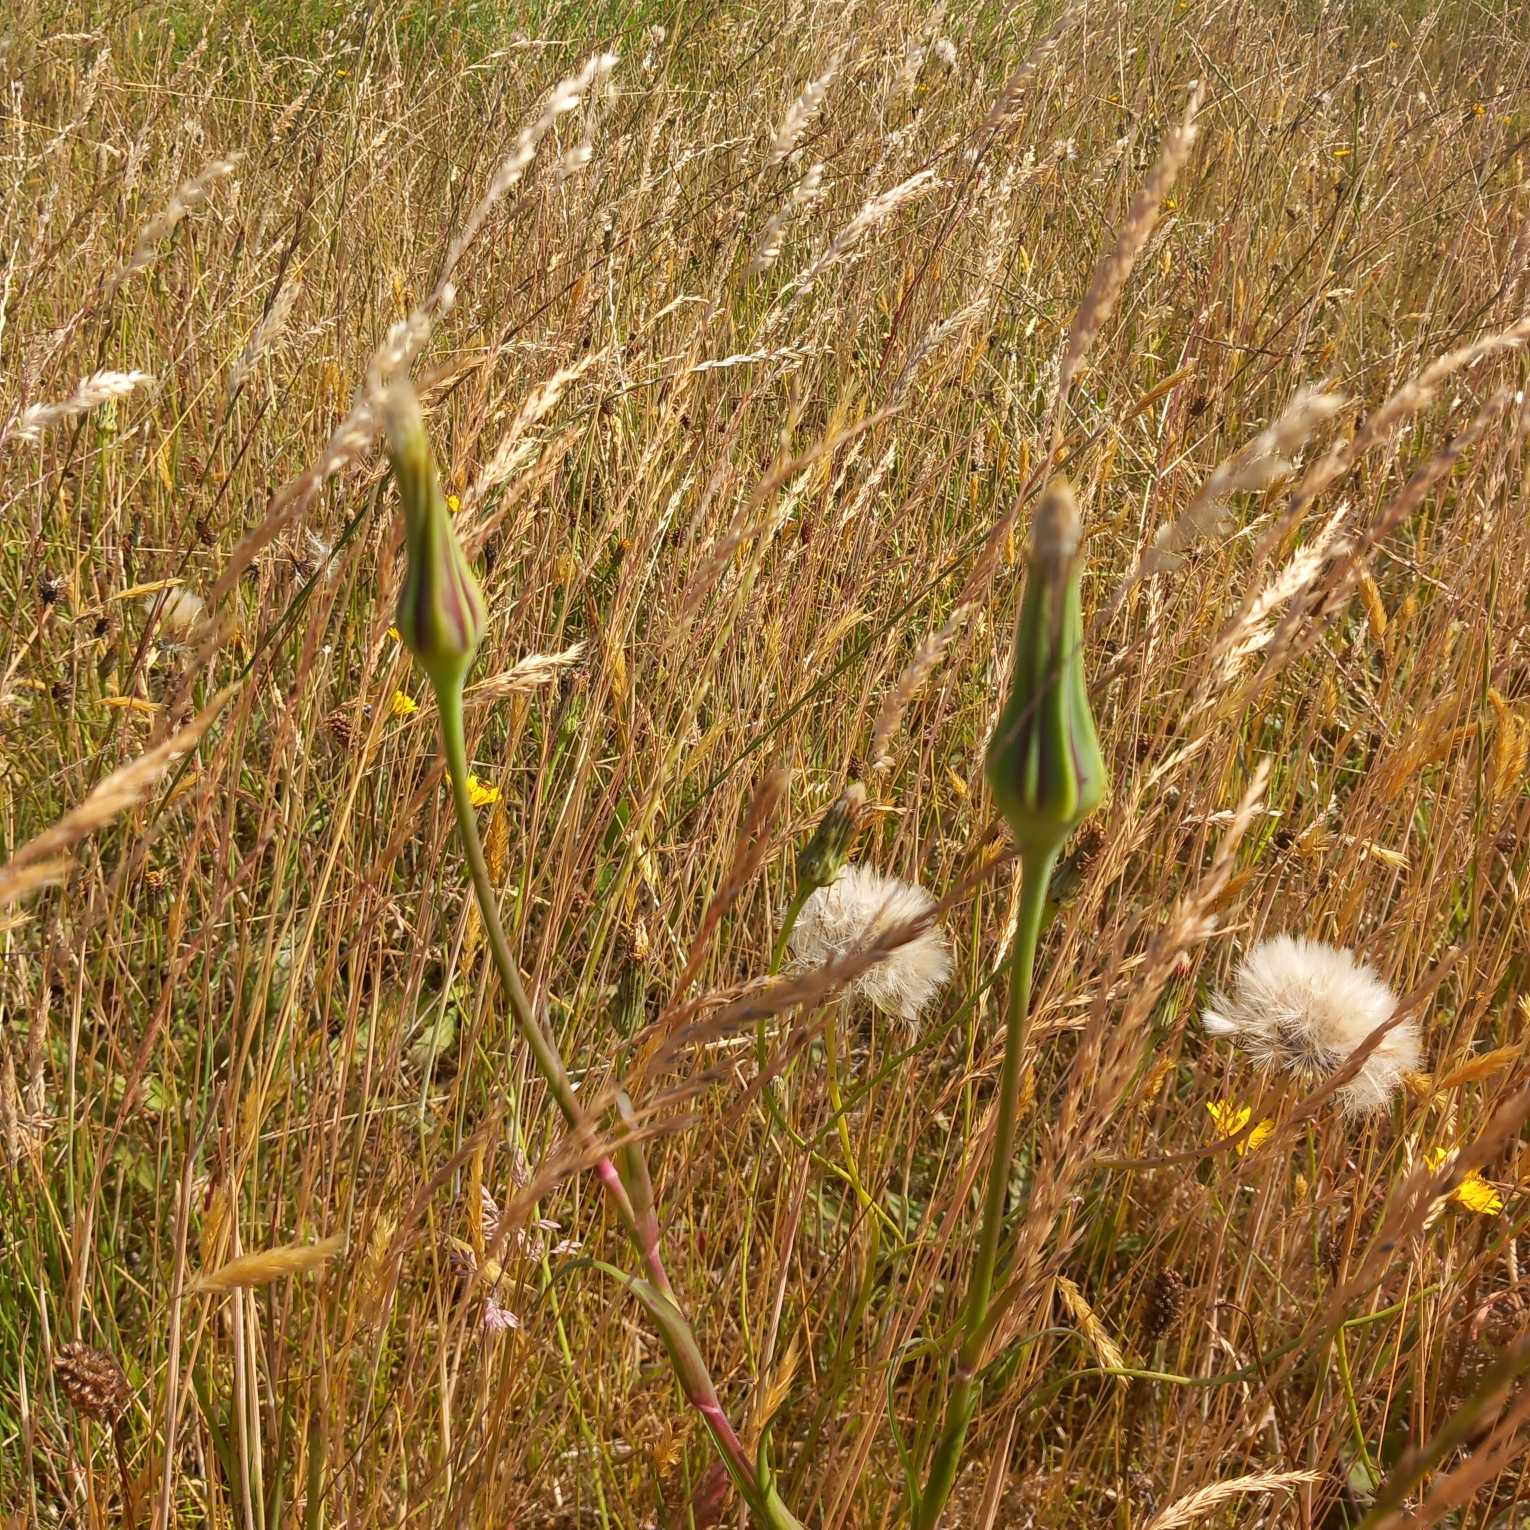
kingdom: Plantae
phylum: Tracheophyta
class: Magnoliopsida
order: Asterales
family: Asteraceae
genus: Tragopogon
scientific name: Tragopogon pratensis
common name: Gedeskæg
